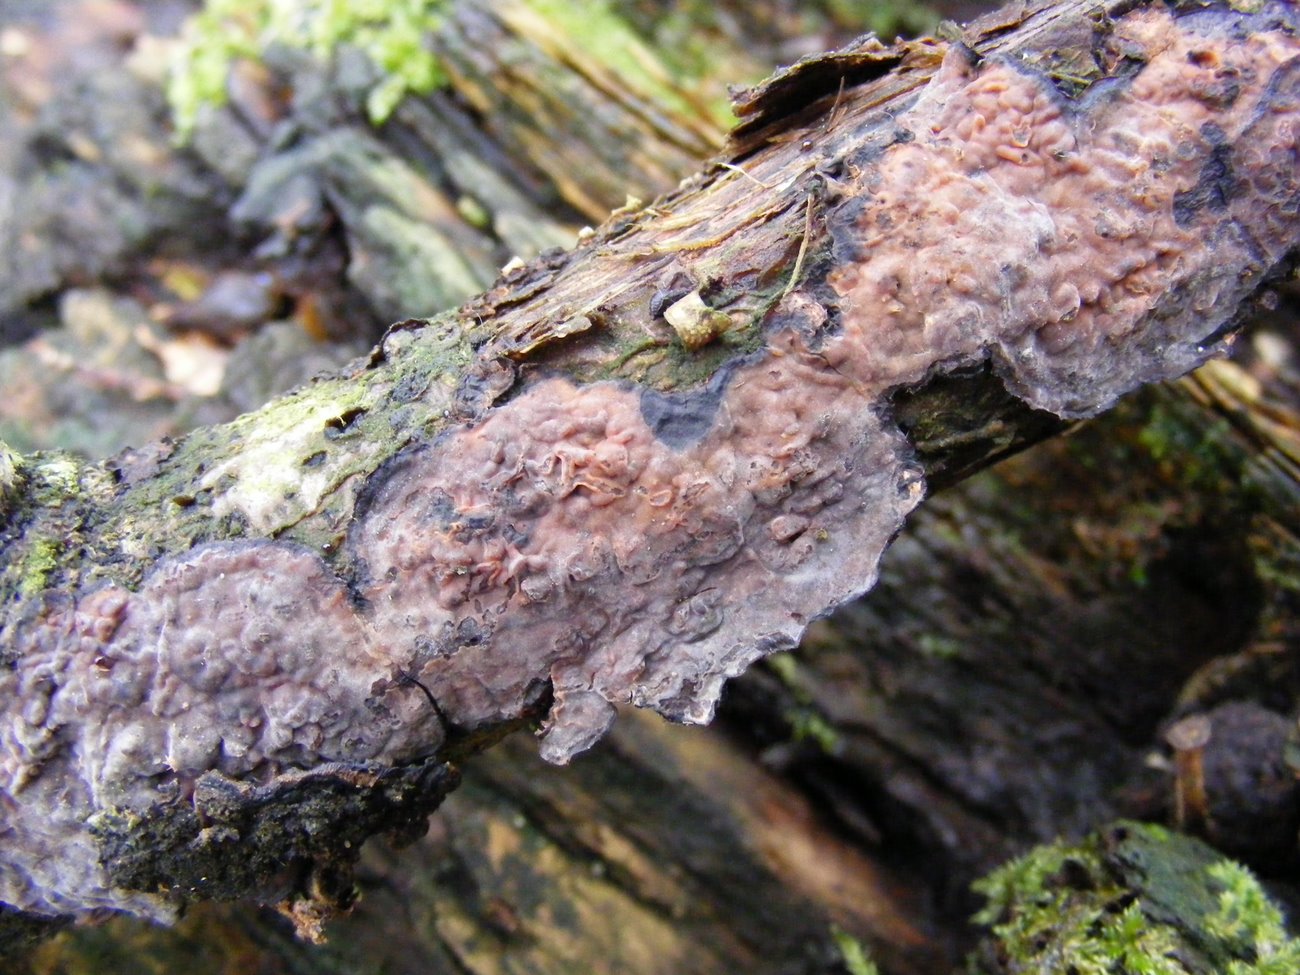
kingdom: Fungi
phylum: Basidiomycota
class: Agaricomycetes
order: Russulales
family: Peniophoraceae
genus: Peniophora
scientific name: Peniophora quercina
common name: ege-voksskind
